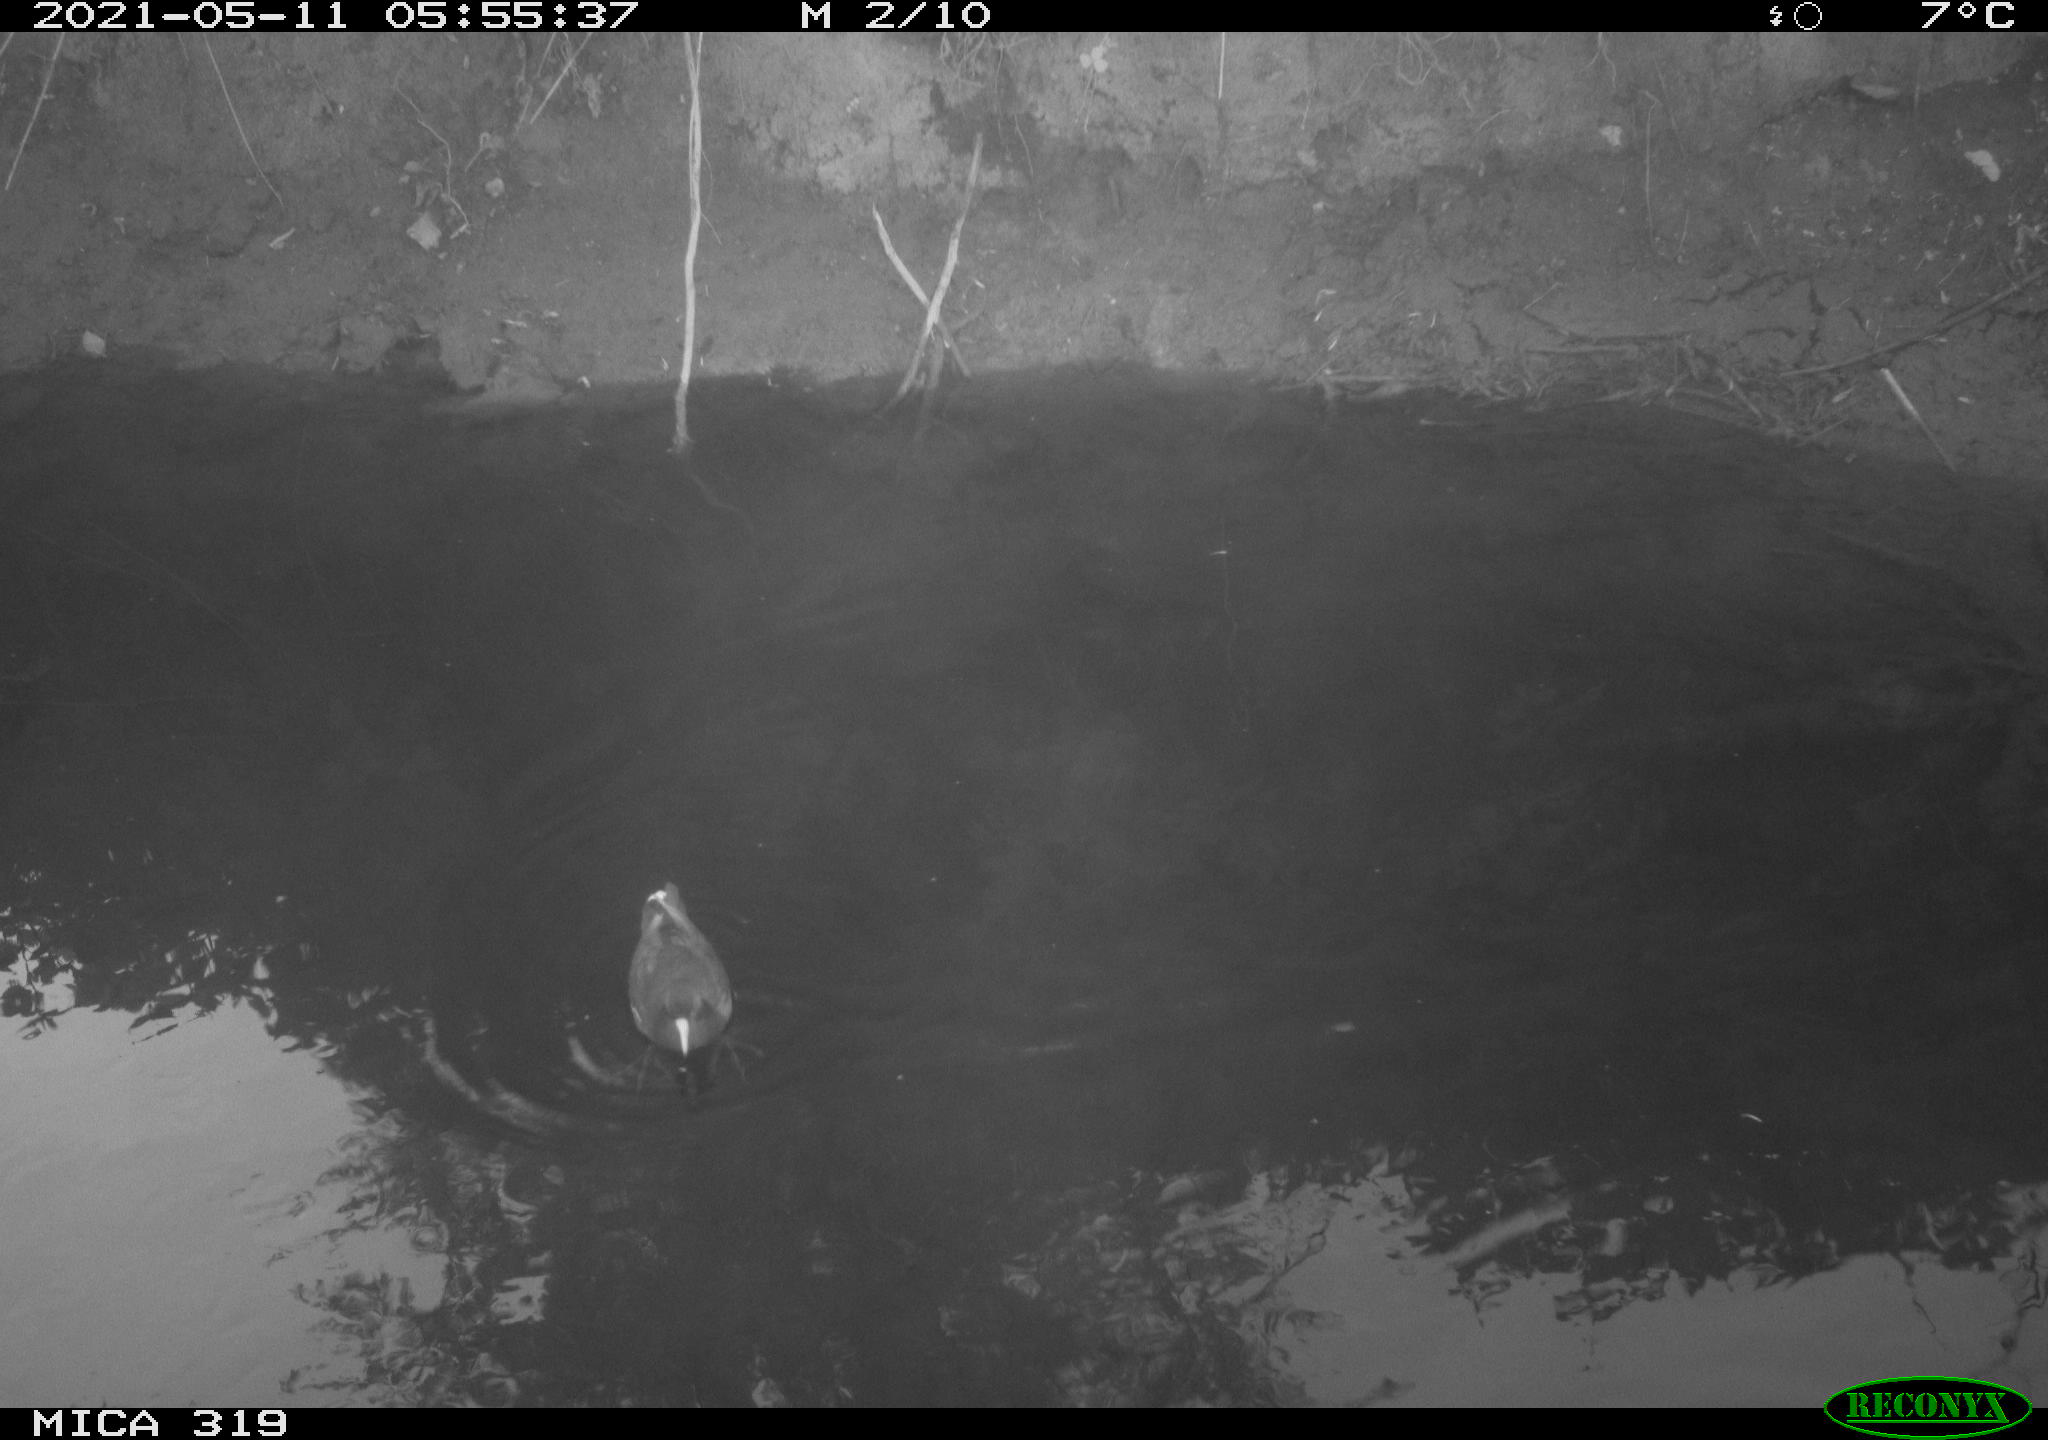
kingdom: Animalia
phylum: Chordata
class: Aves
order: Gruiformes
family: Rallidae
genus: Gallinula
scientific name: Gallinula chloropus
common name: Common moorhen
